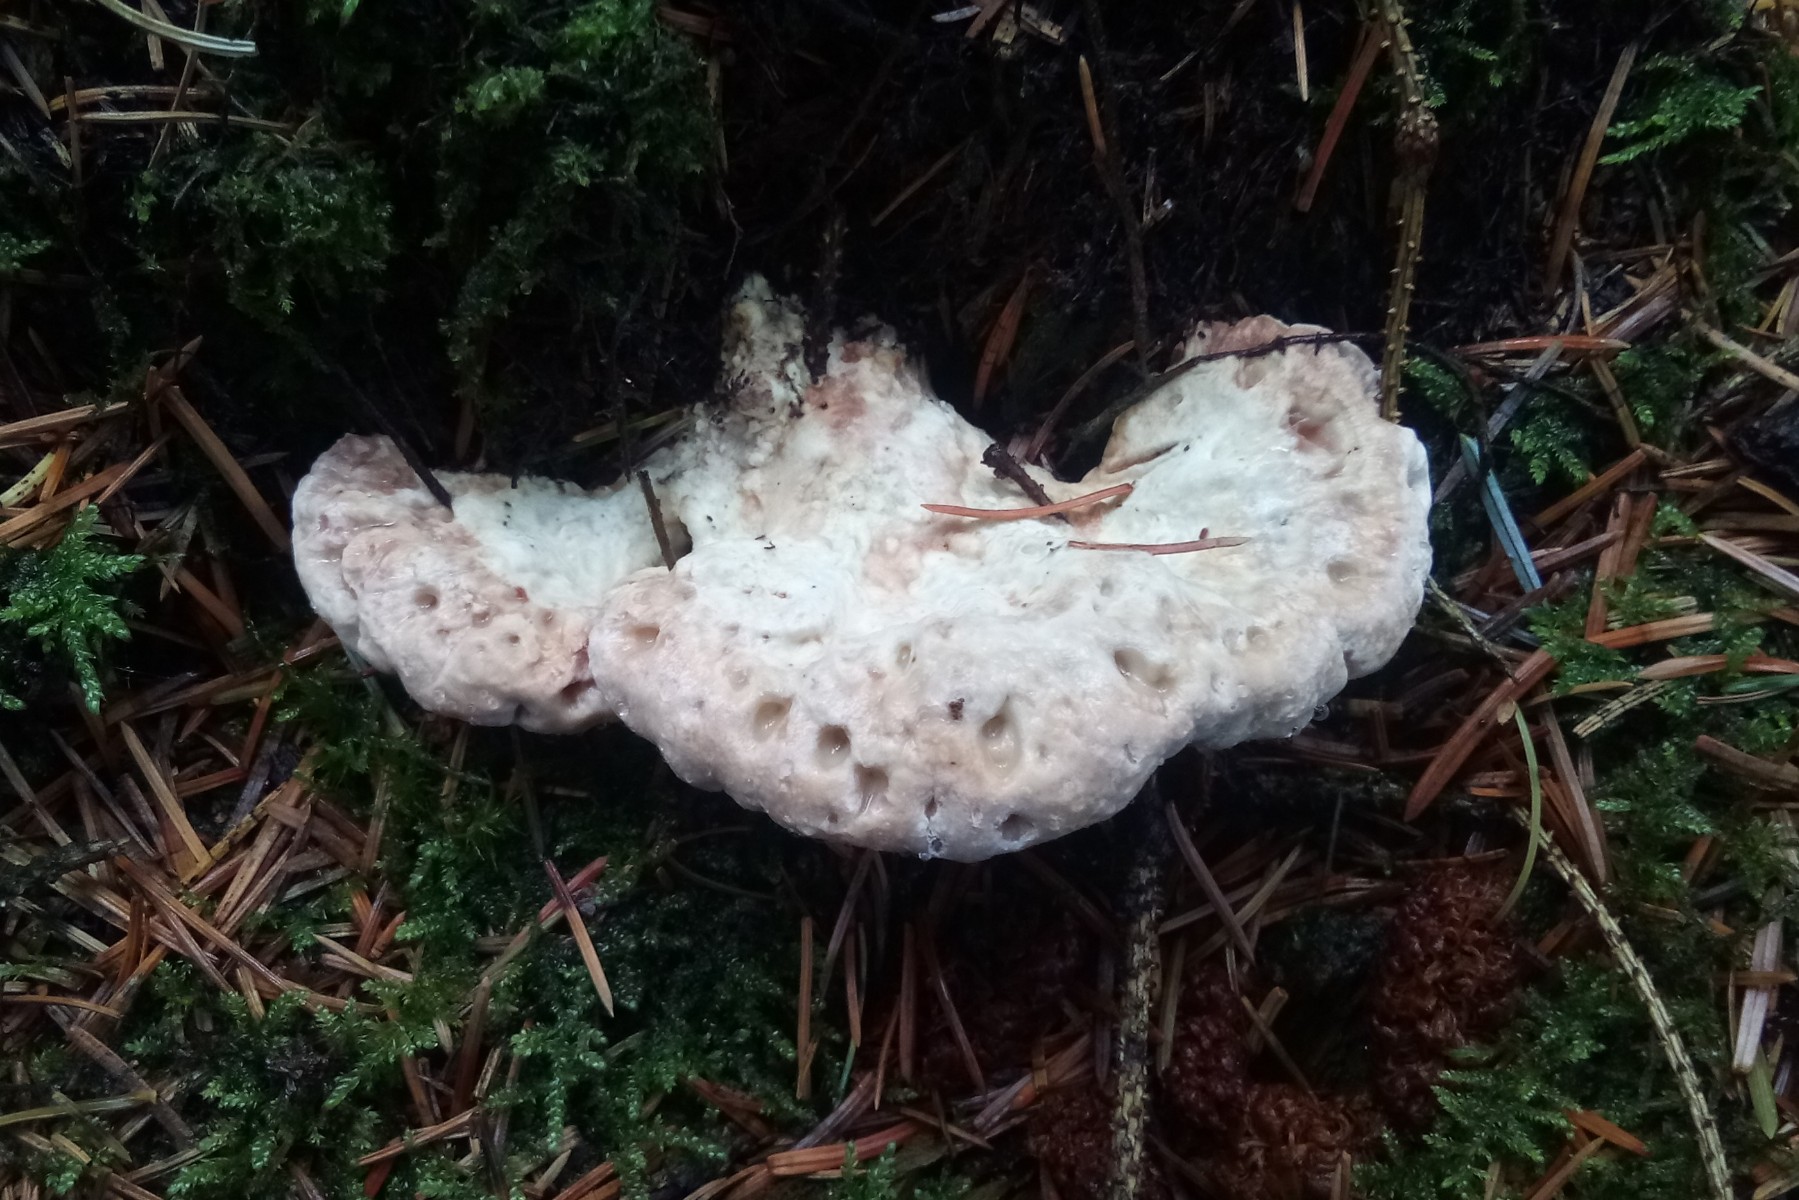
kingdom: Fungi
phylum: Basidiomycota
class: Agaricomycetes
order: Polyporales
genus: Calcipostia
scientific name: Calcipostia guttulata
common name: dråbe-kødporesvamp
